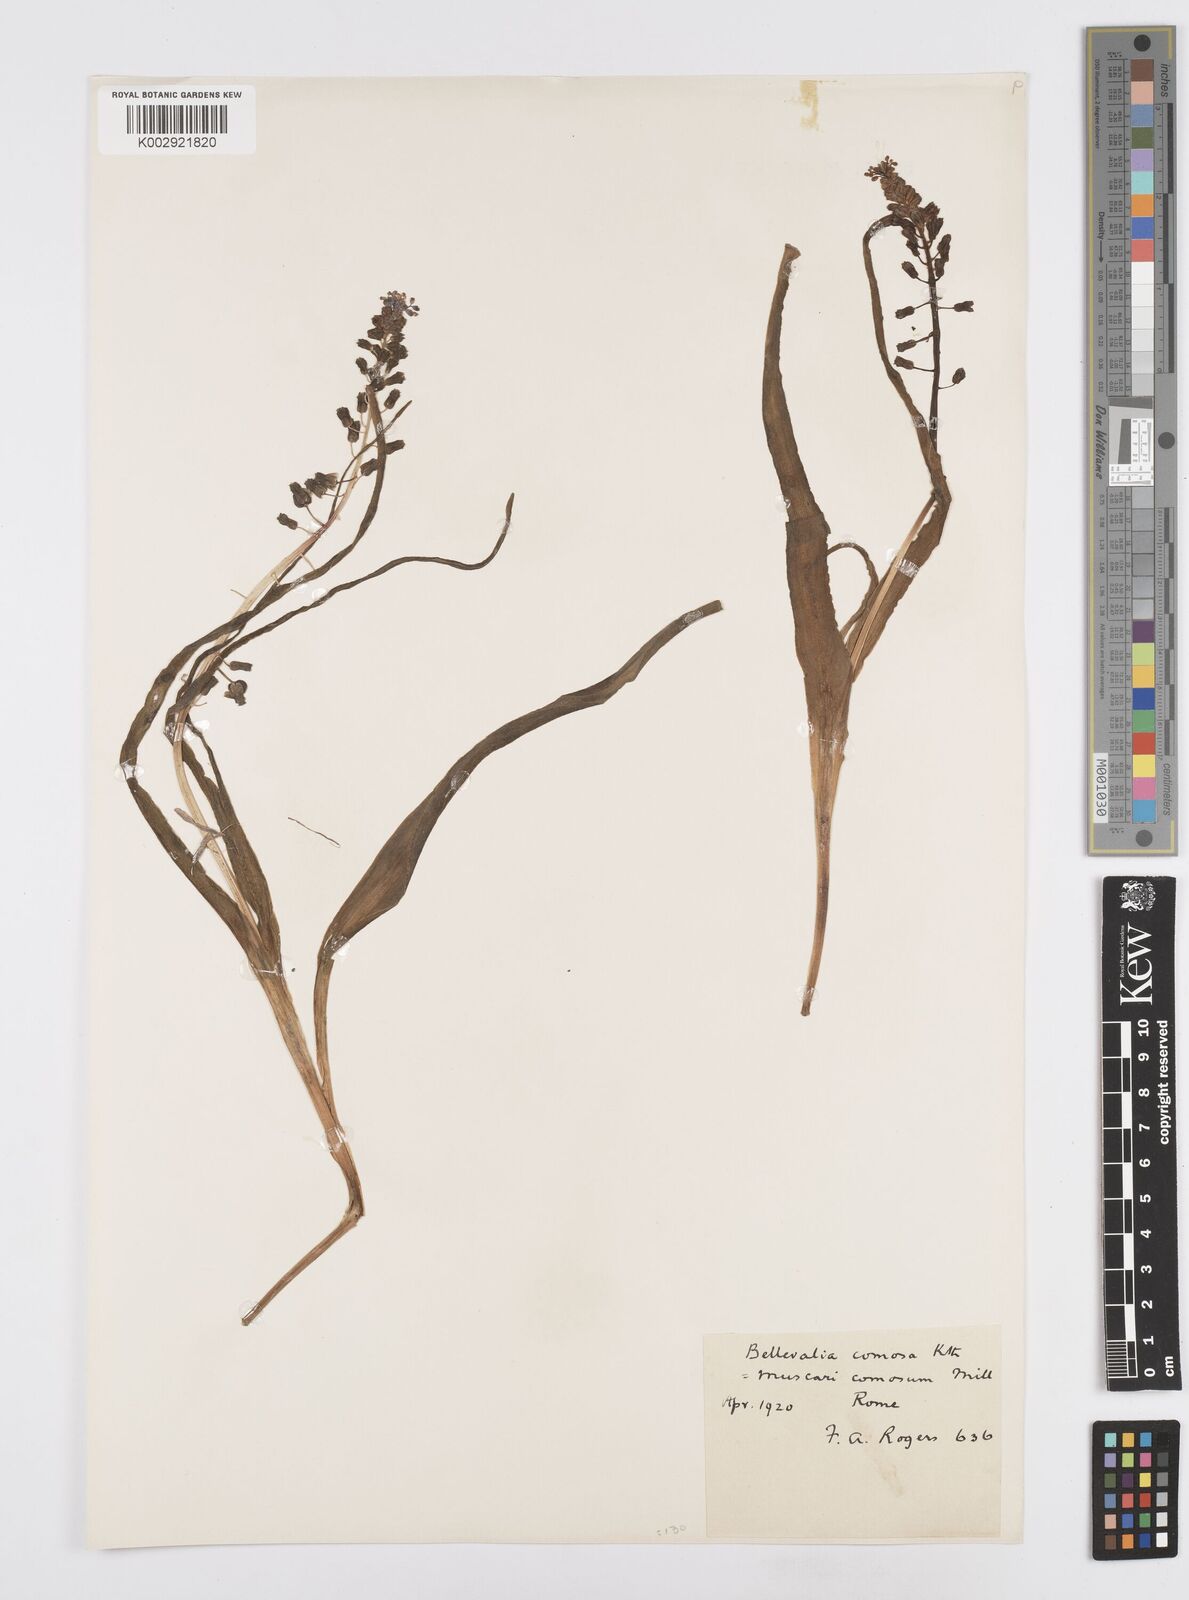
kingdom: Plantae
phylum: Tracheophyta
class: Liliopsida
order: Asparagales
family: Asparagaceae
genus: Muscari
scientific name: Muscari comosum
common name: Tassel hyacinth
